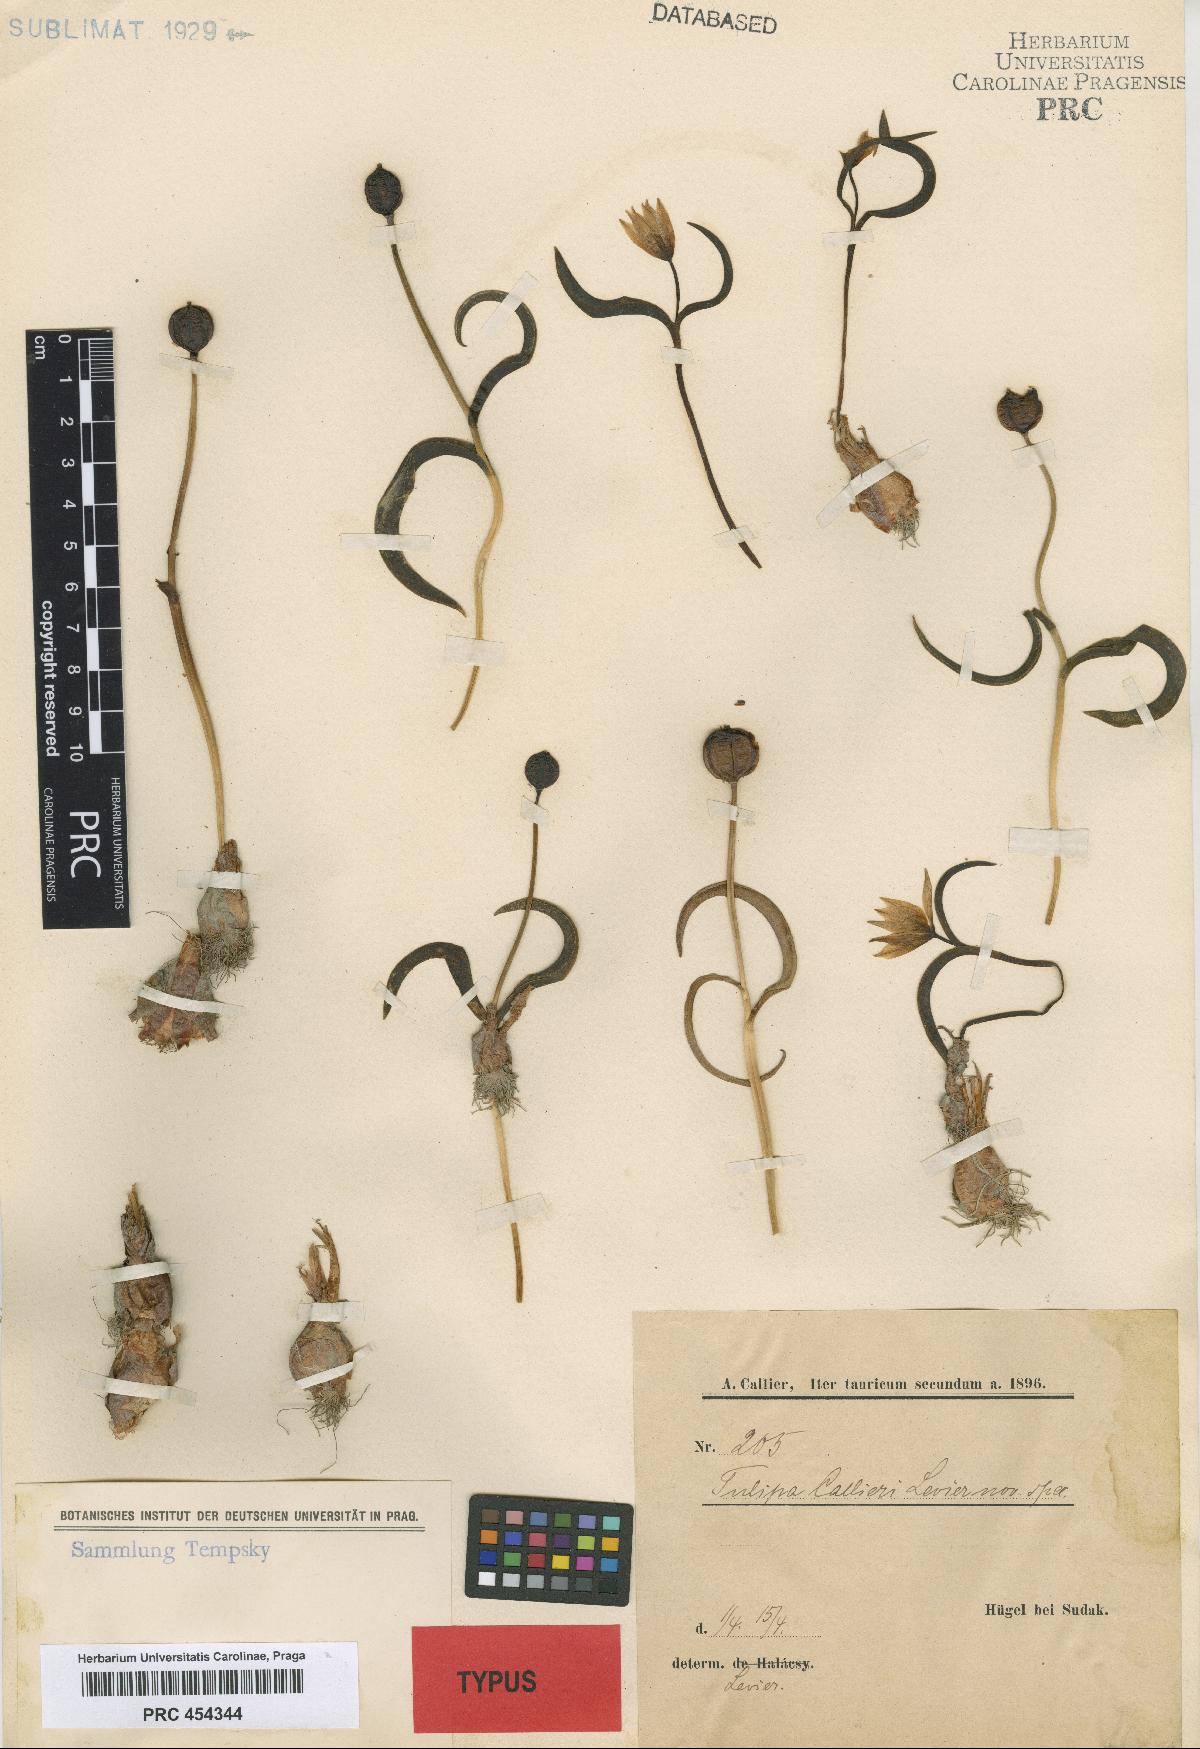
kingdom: Plantae
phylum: Tracheophyta
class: Liliopsida
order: Liliales
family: Liliaceae
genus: Tulipa
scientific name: Tulipa sylvestris
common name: Wild tulip
